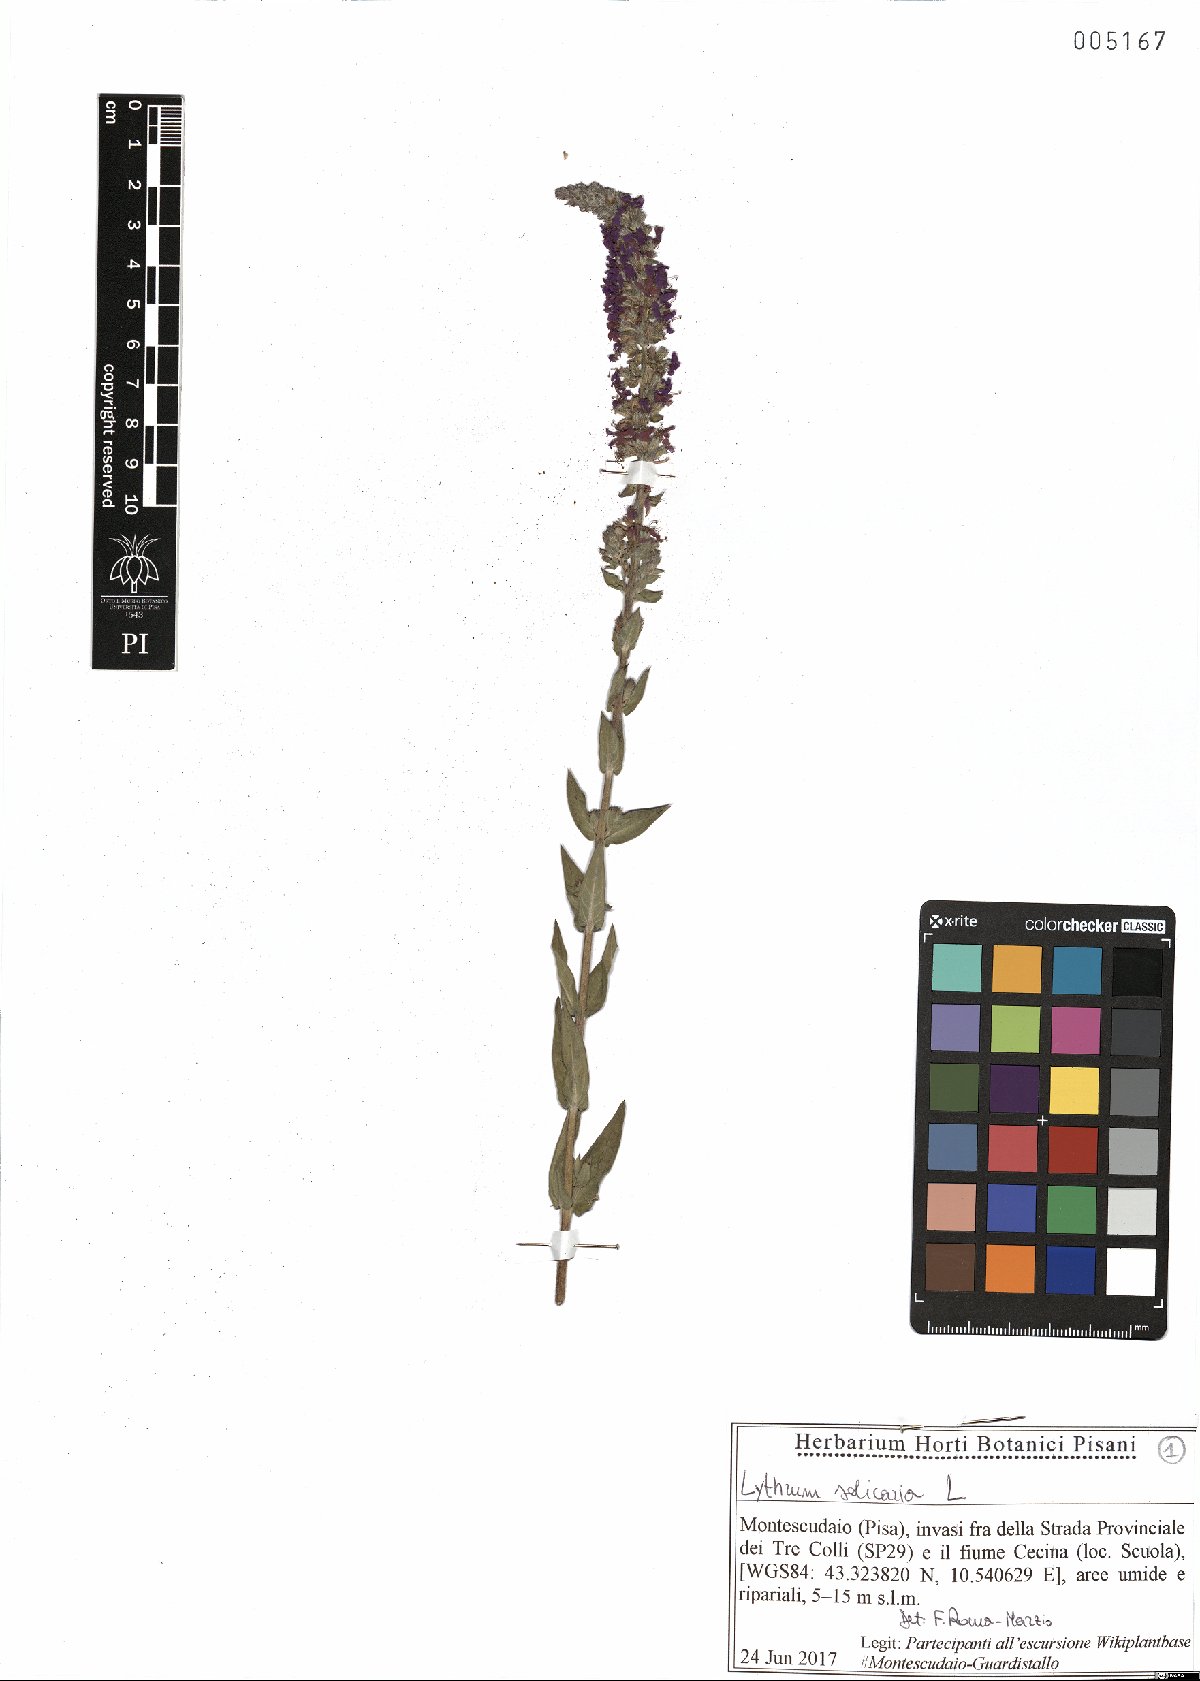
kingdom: Plantae
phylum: Tracheophyta
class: Magnoliopsida
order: Myrtales
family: Lythraceae
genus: Lythrum
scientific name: Lythrum salicaria
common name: Purple loosestrife
